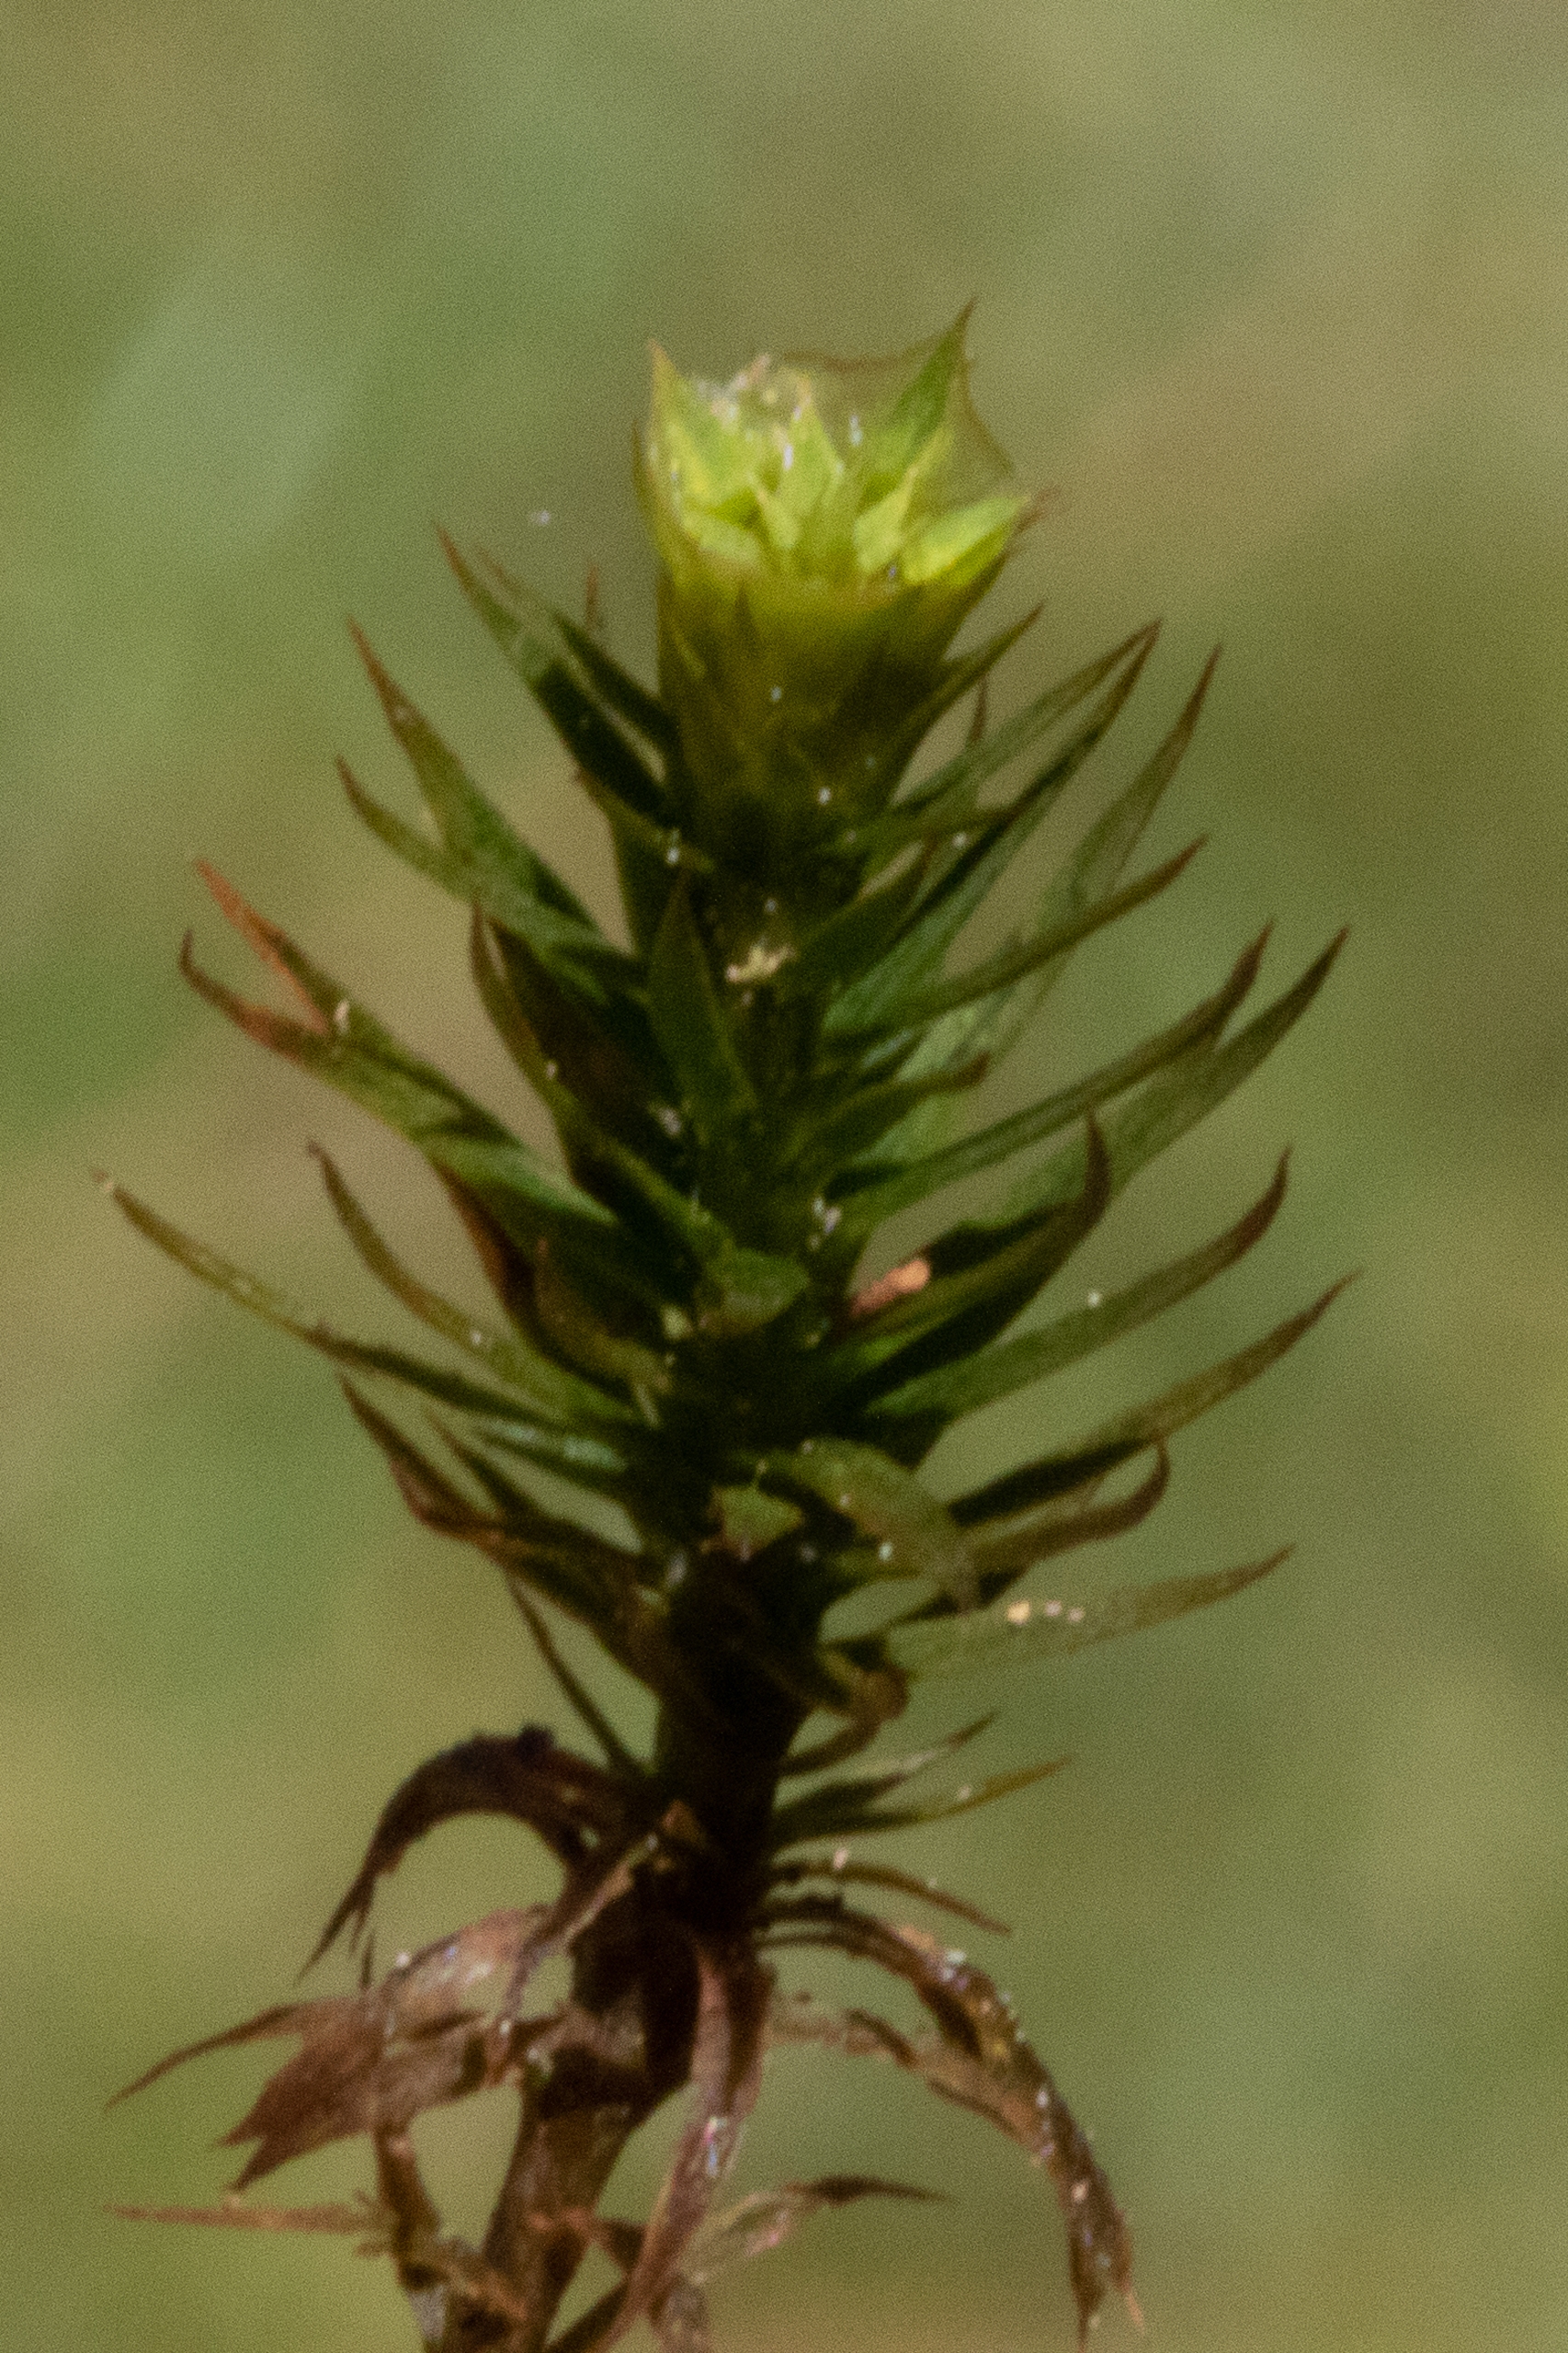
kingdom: Plantae
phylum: Bryophyta
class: Polytrichopsida
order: Polytrichales
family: Polytrichaceae
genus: Polytrichum
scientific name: Polytrichum formosum
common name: Skov-jomfruhår
